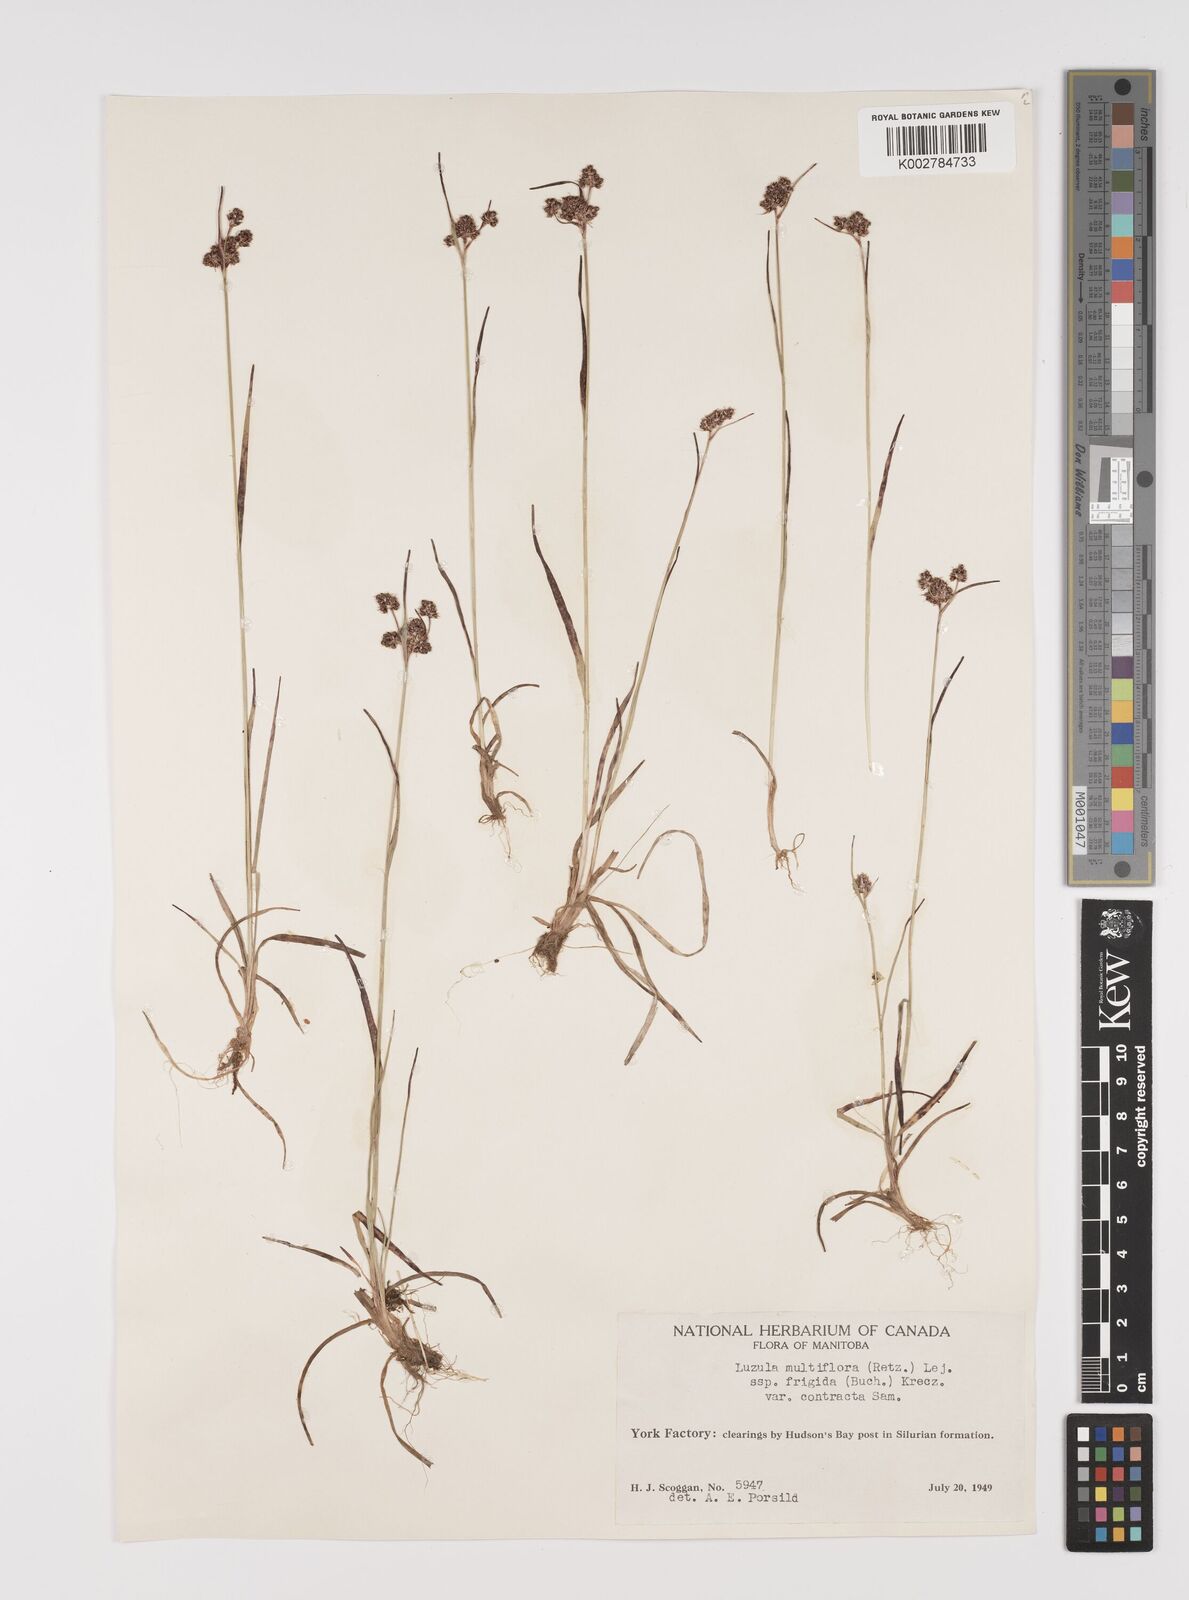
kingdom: Plantae
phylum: Tracheophyta
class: Liliopsida
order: Poales
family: Juncaceae
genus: Luzula
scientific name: Luzula campestris
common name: Field wood-rush
